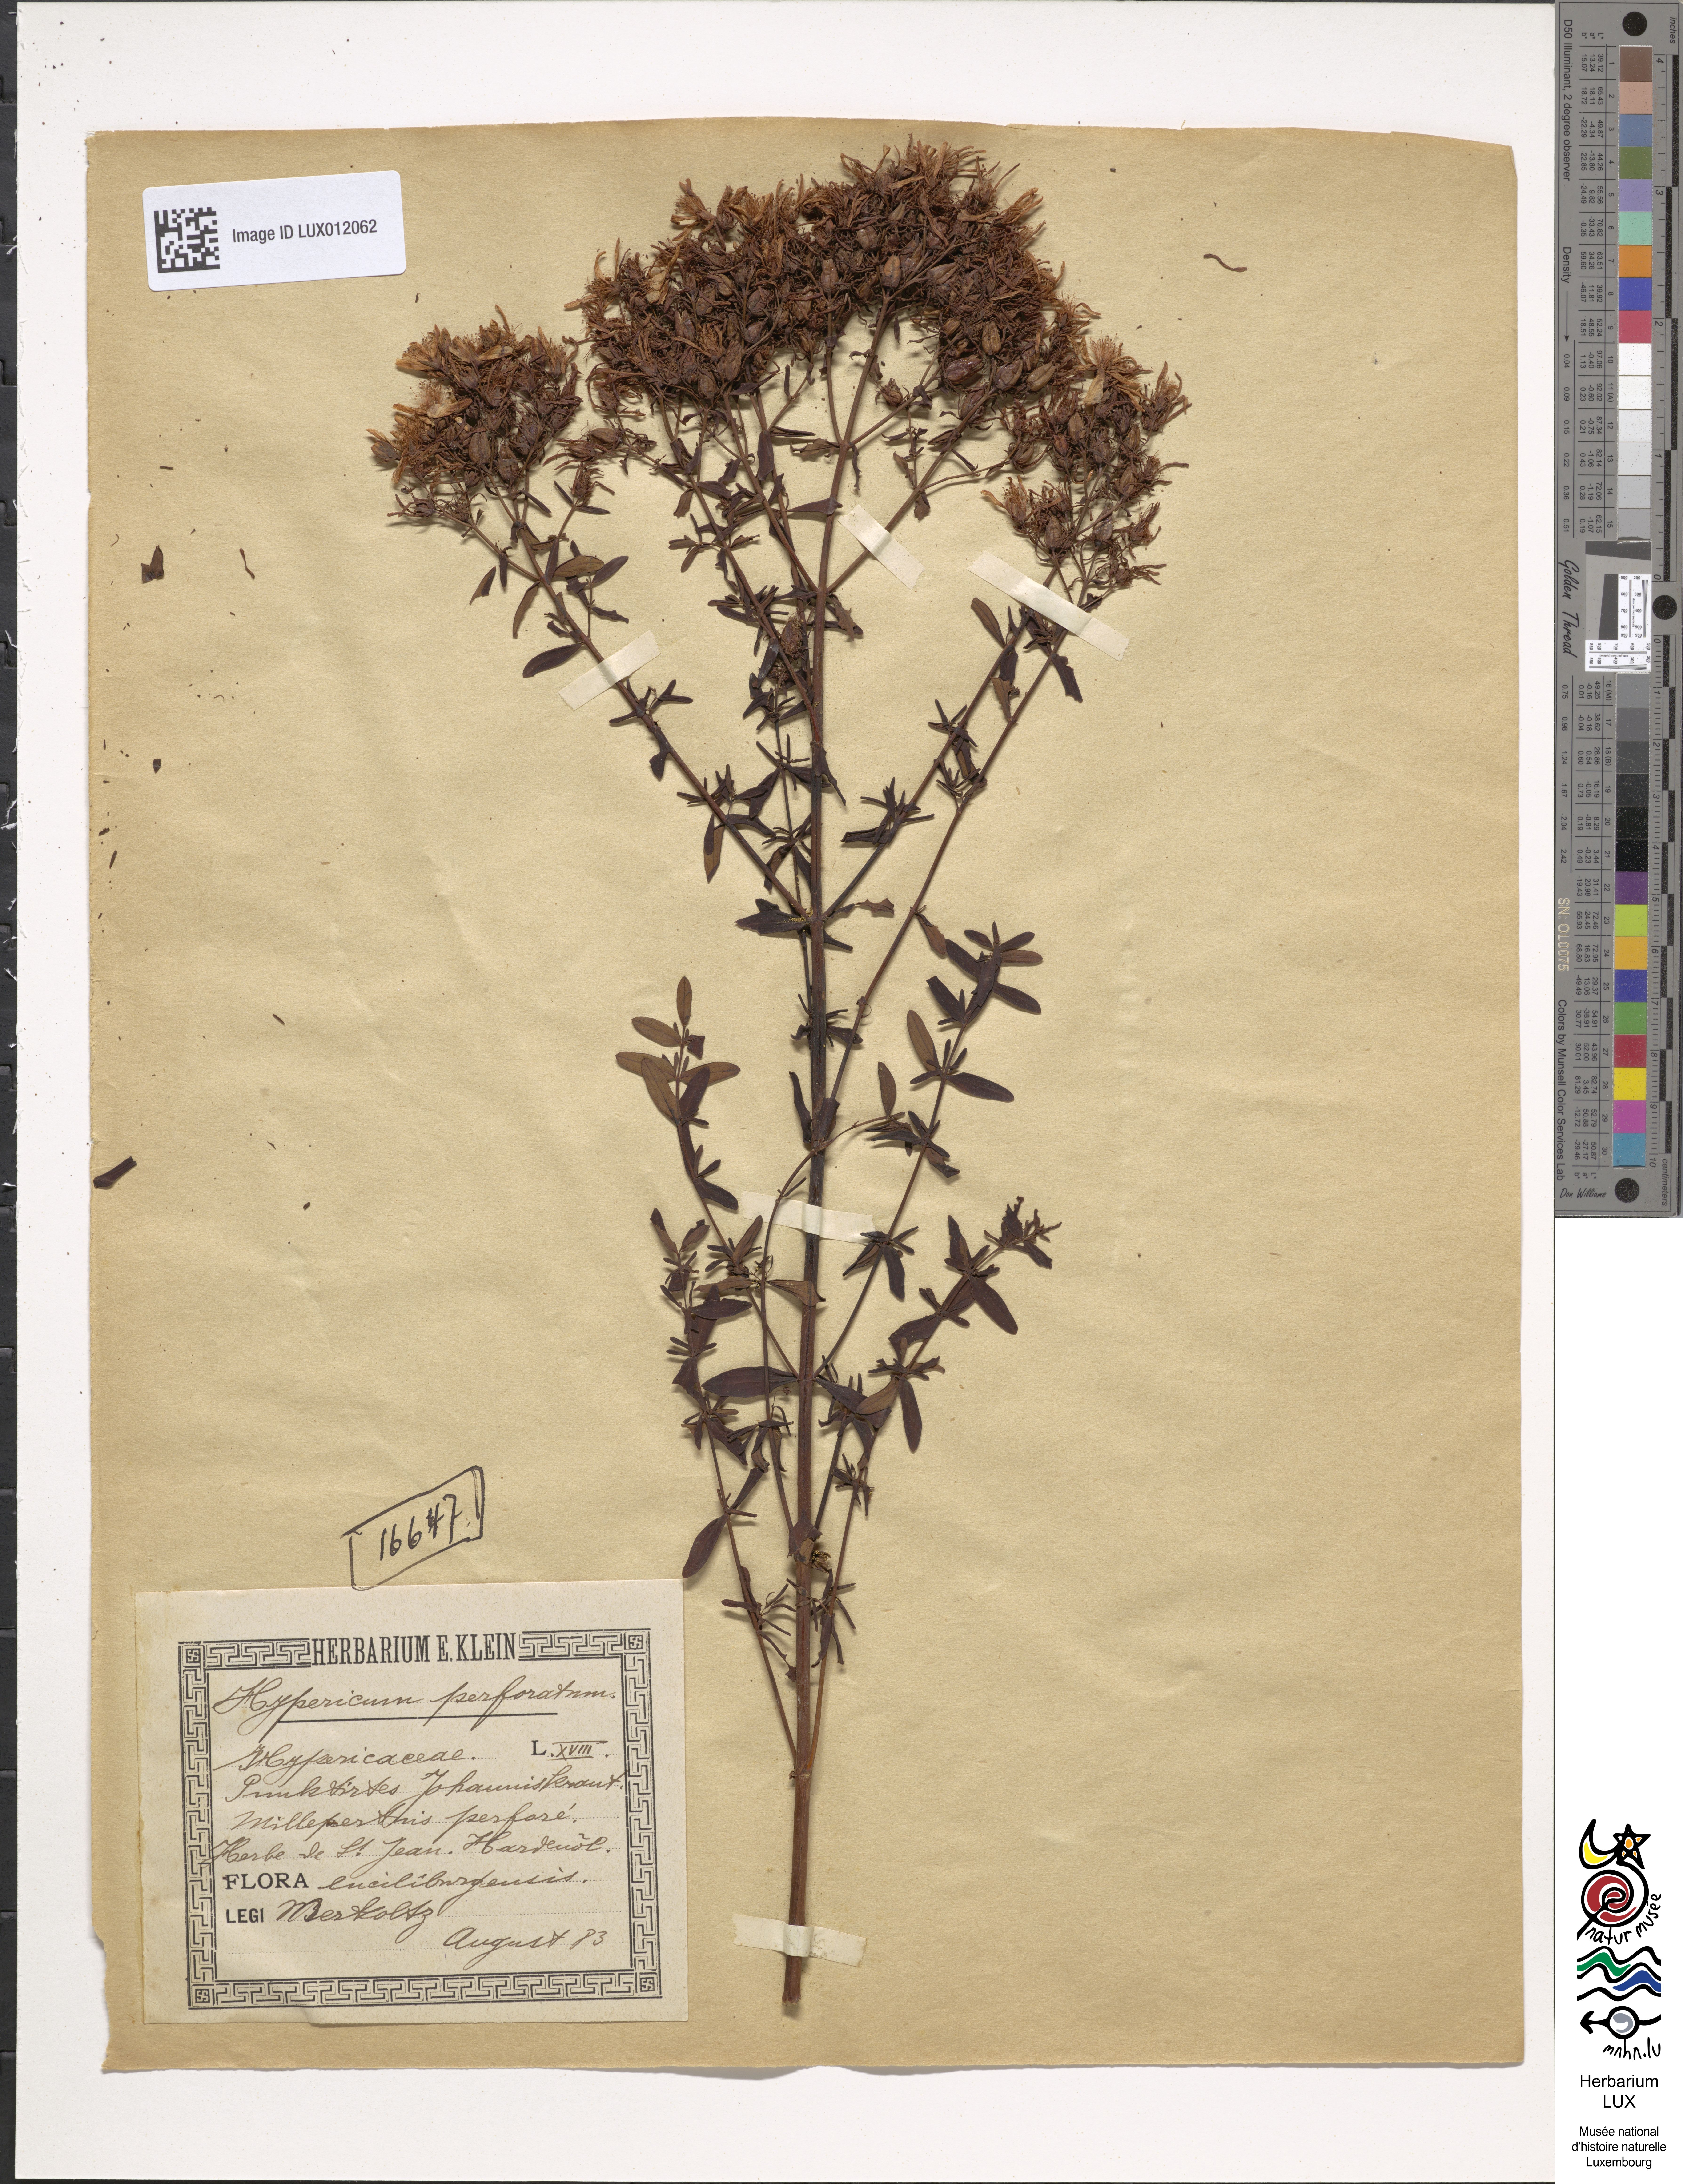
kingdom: Plantae
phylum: Tracheophyta
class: Magnoliopsida
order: Malpighiales
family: Hypericaceae
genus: Hypericum
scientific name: Hypericum perforatum
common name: Common st. johnswort
